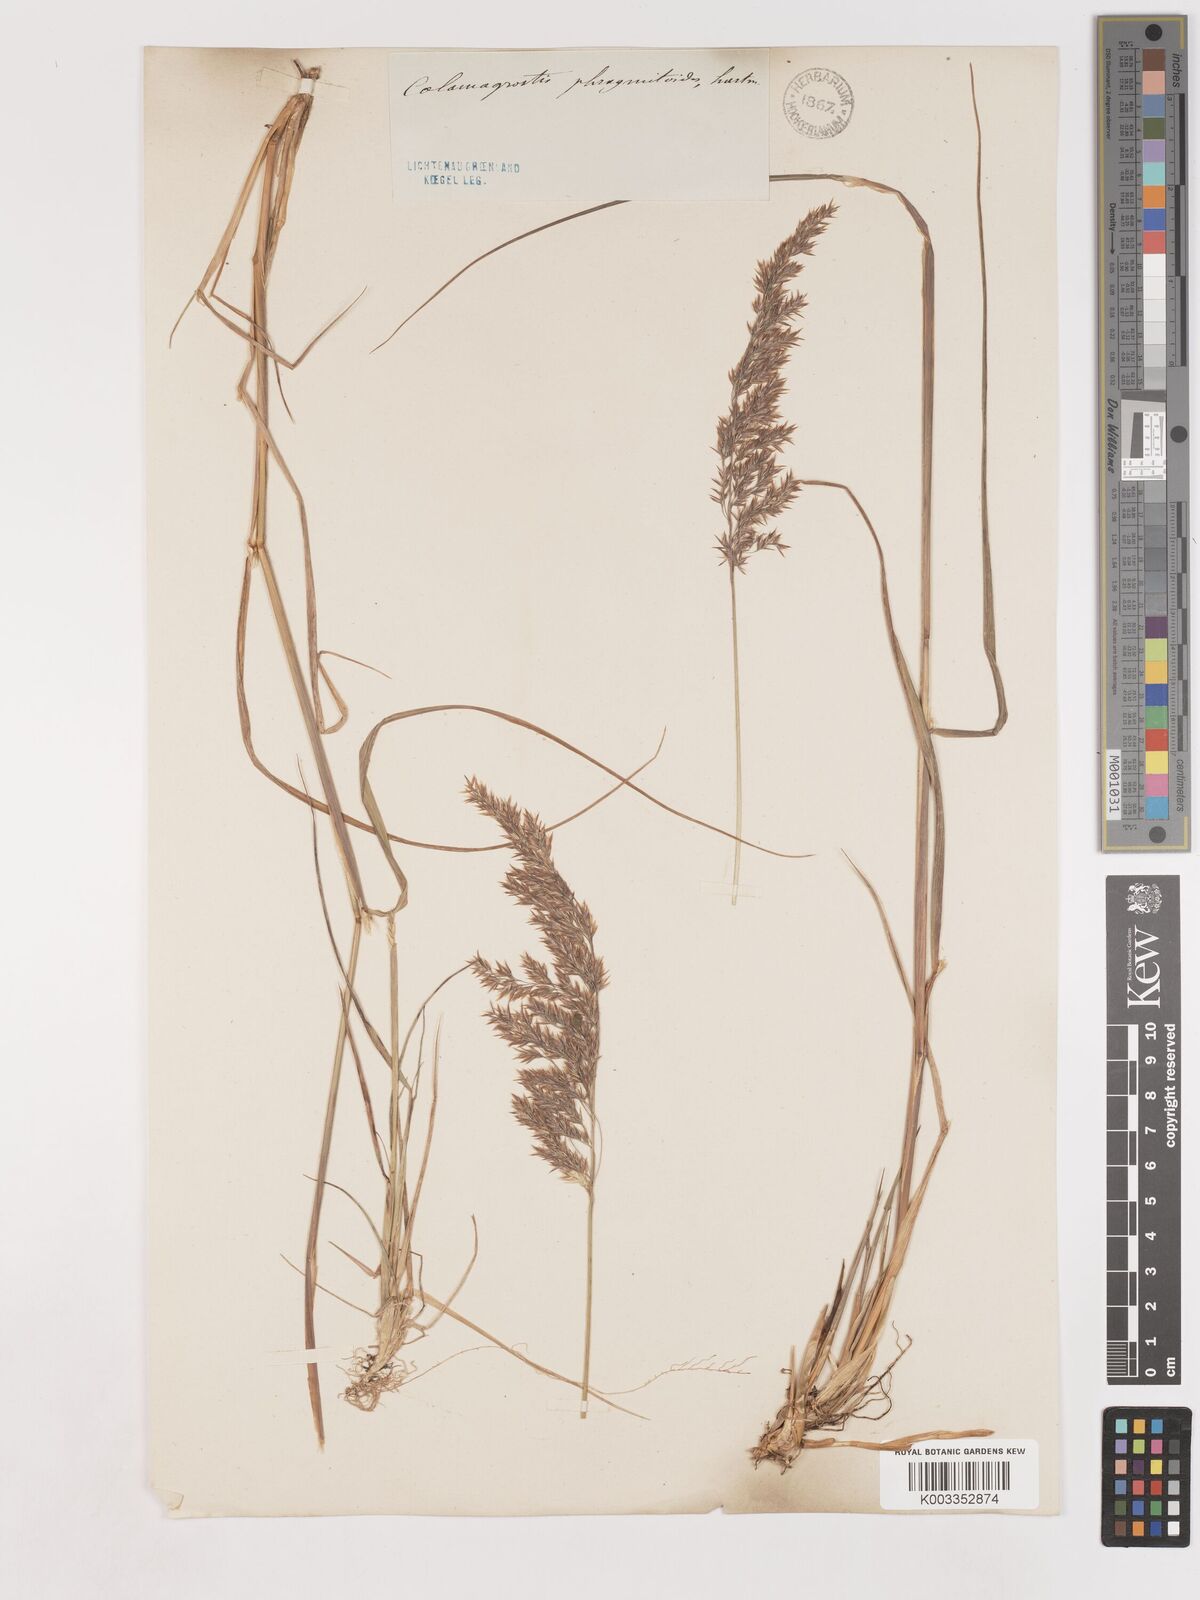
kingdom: Plantae
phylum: Tracheophyta
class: Liliopsida
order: Poales
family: Poaceae
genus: Calamagrostis
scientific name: Calamagrostis purpurea
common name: Scandinavian small-reed
